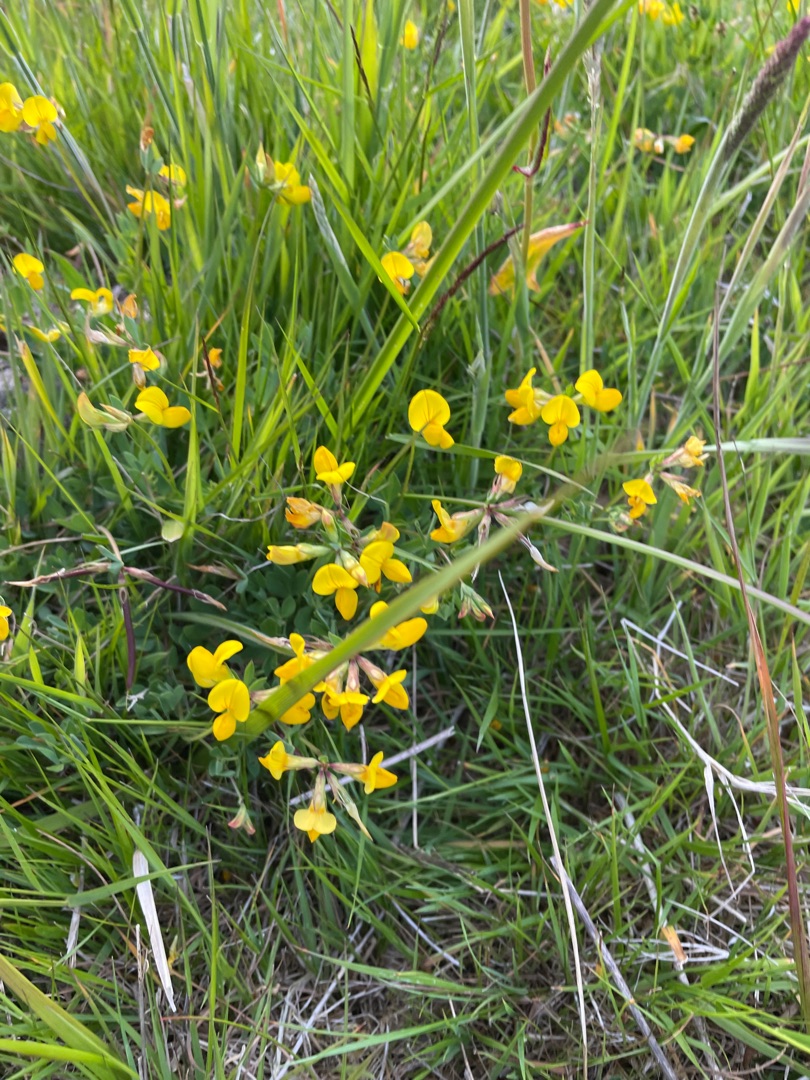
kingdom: Plantae
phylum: Tracheophyta
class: Magnoliopsida
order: Fabales
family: Fabaceae
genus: Lotus
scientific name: Lotus corniculatus
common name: Almindelig kællingetand
